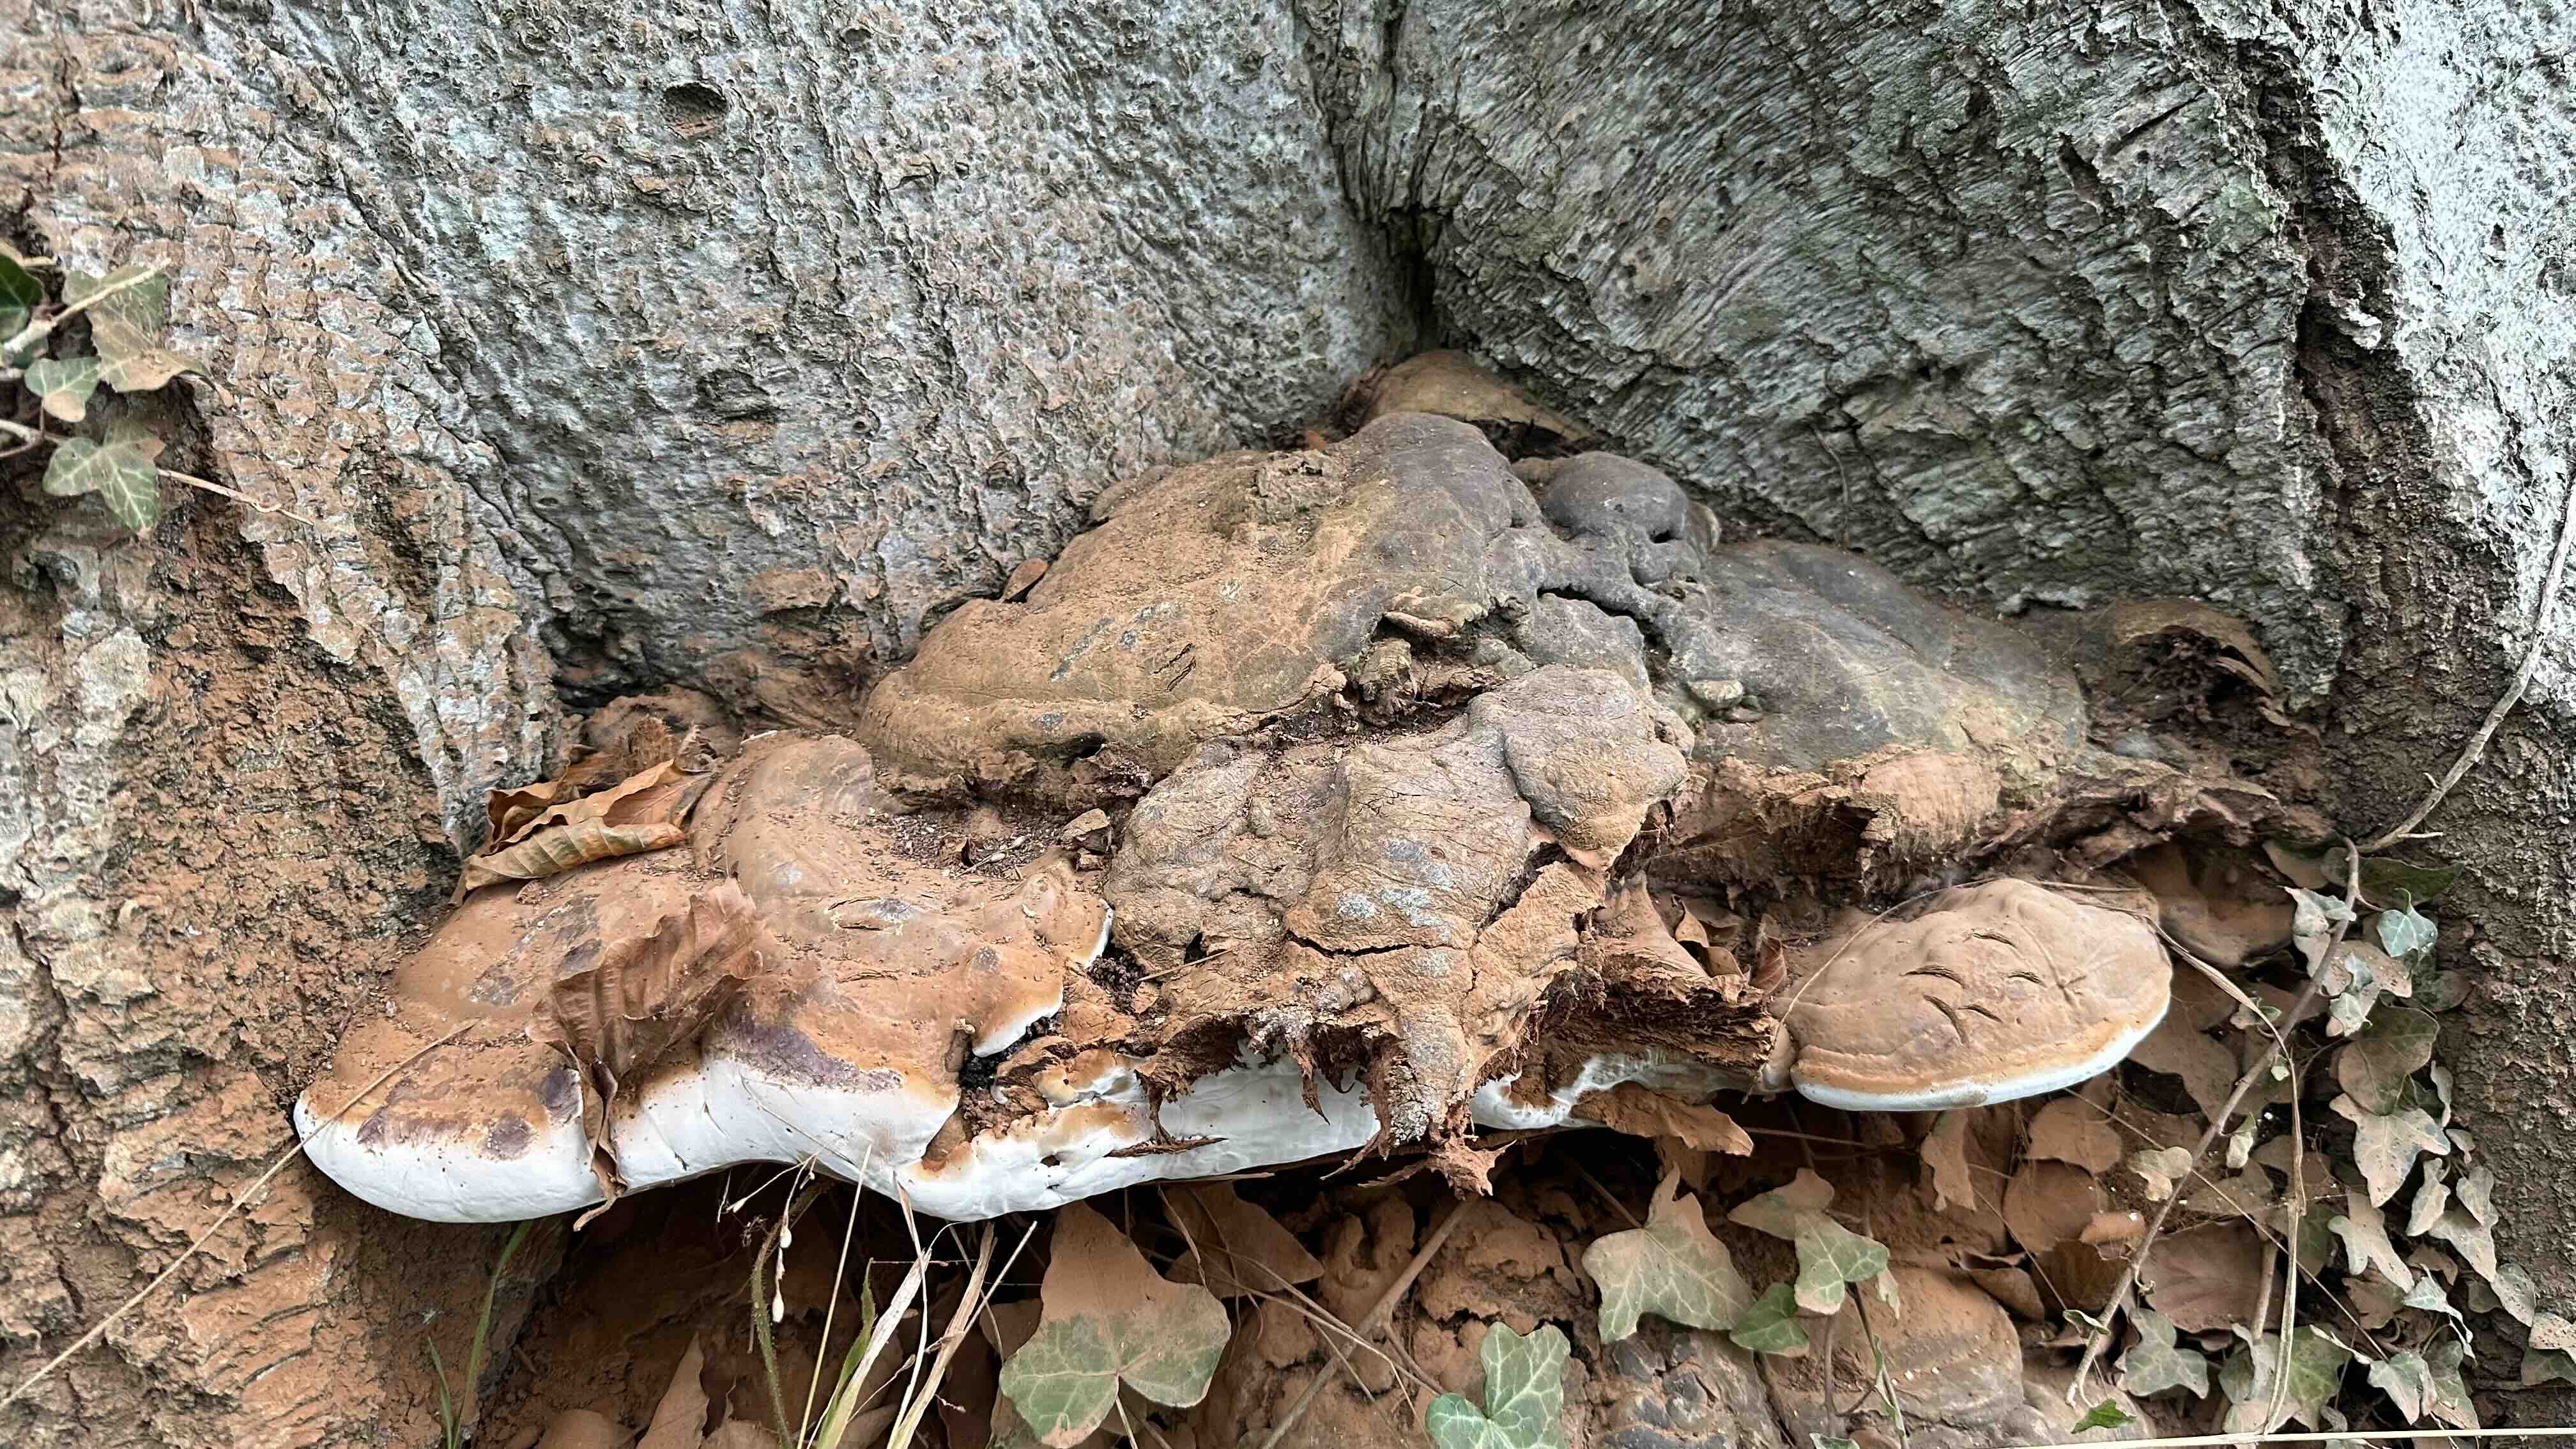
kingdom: Fungi
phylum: Basidiomycota
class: Agaricomycetes
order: Polyporales
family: Polyporaceae
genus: Ganoderma
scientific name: Ganoderma pfeifferi
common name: kobberrød lakporesvamp
